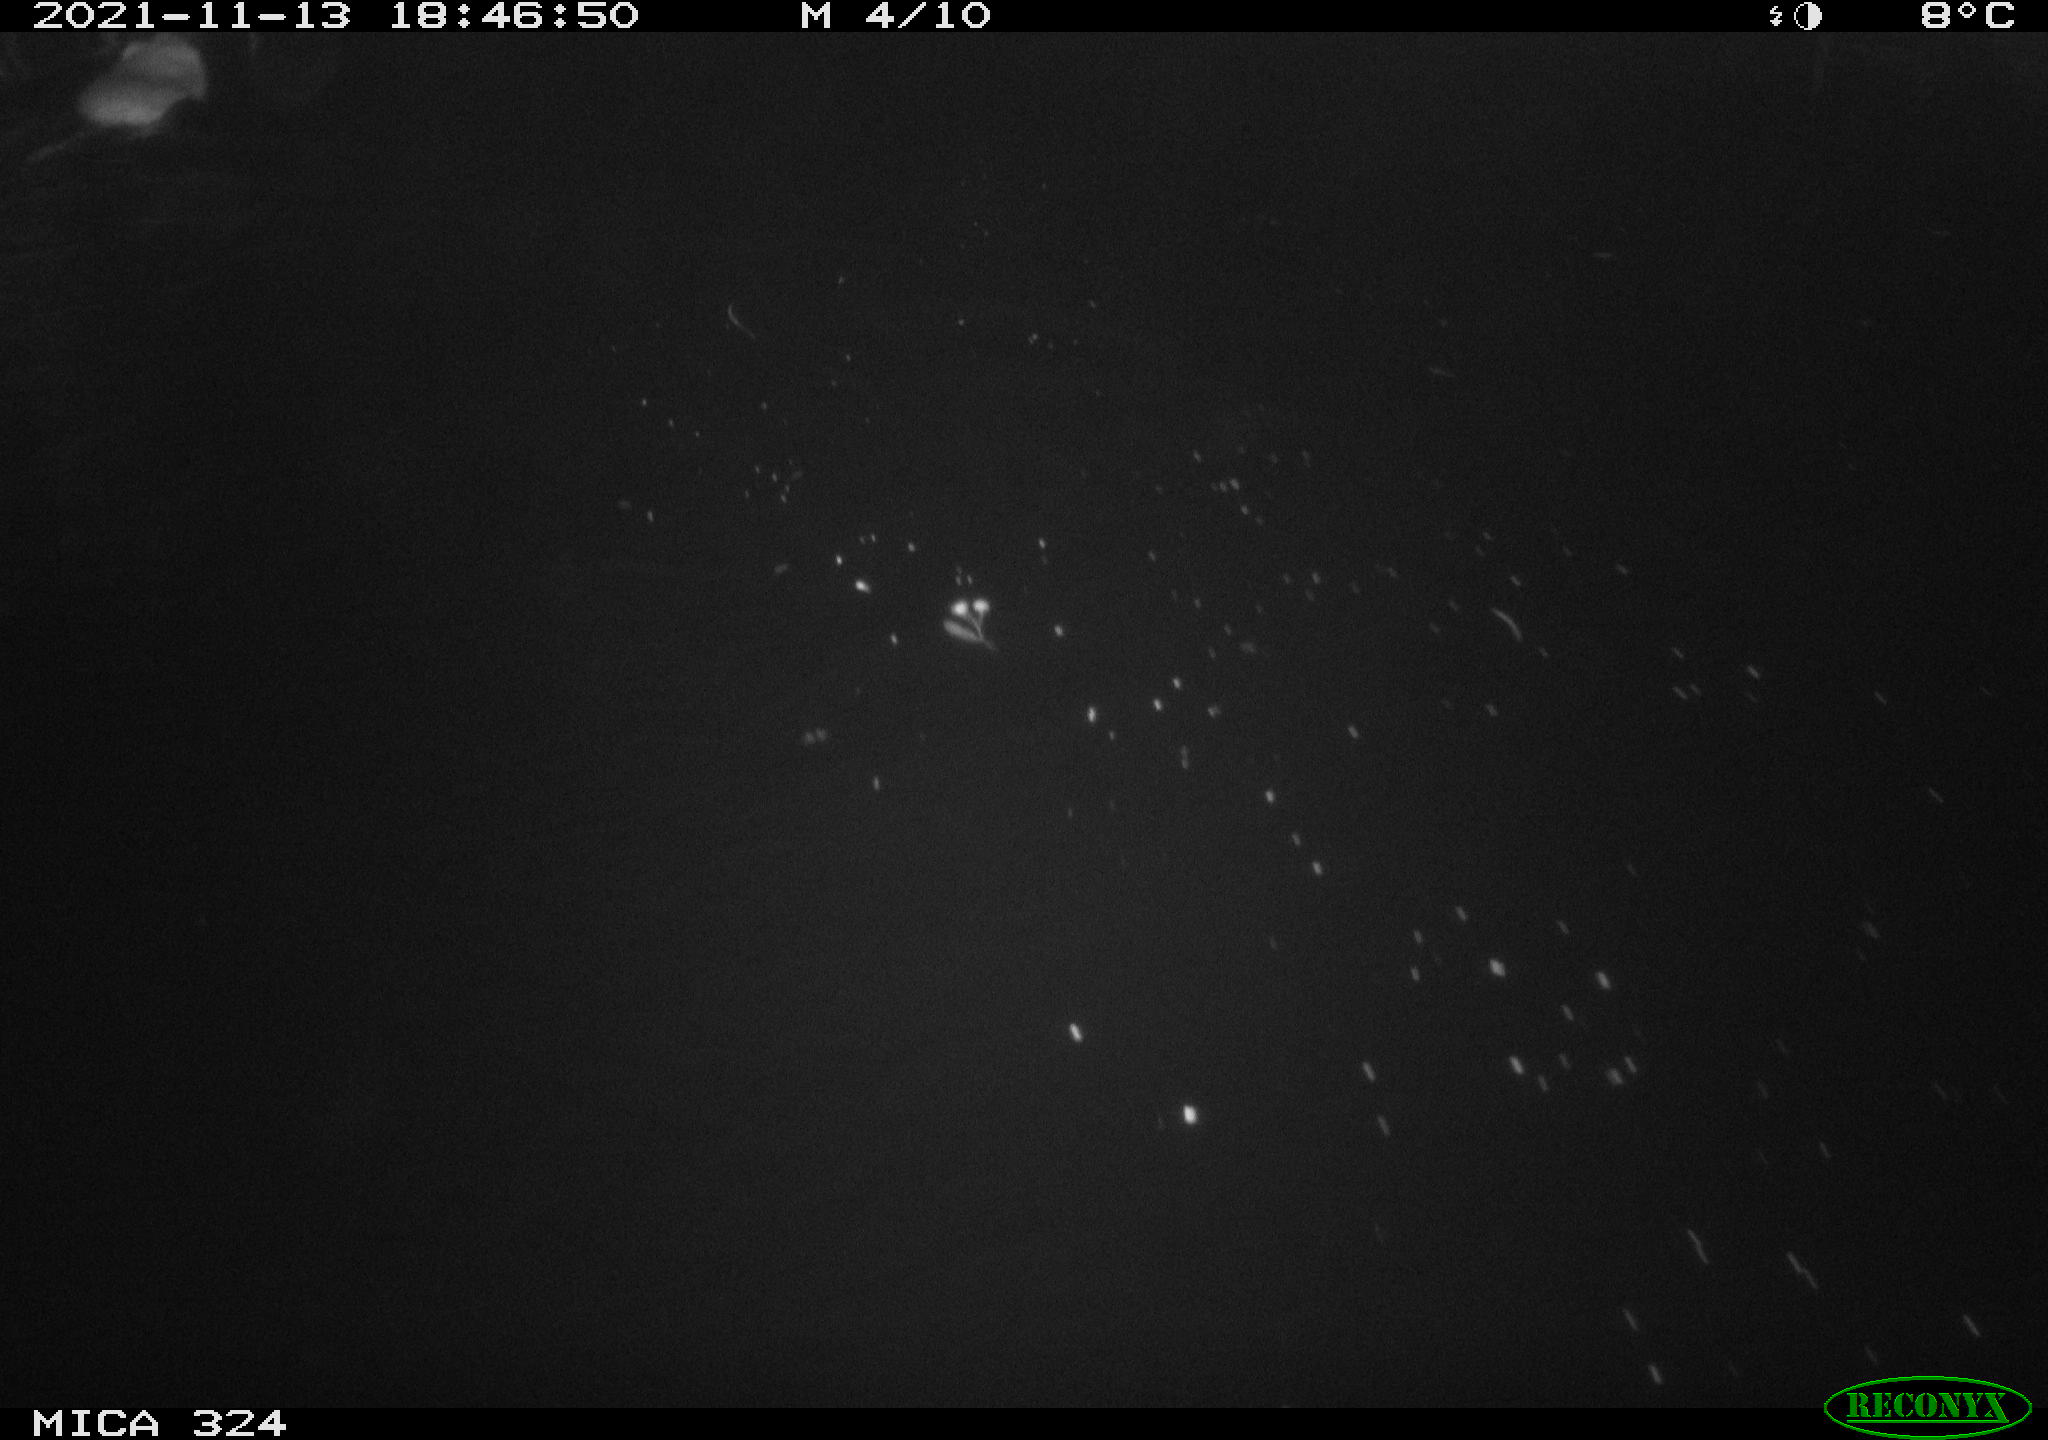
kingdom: Animalia
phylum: Chordata
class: Mammalia
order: Rodentia
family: Cricetidae
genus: Ondatra
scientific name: Ondatra zibethicus
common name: Muskrat
